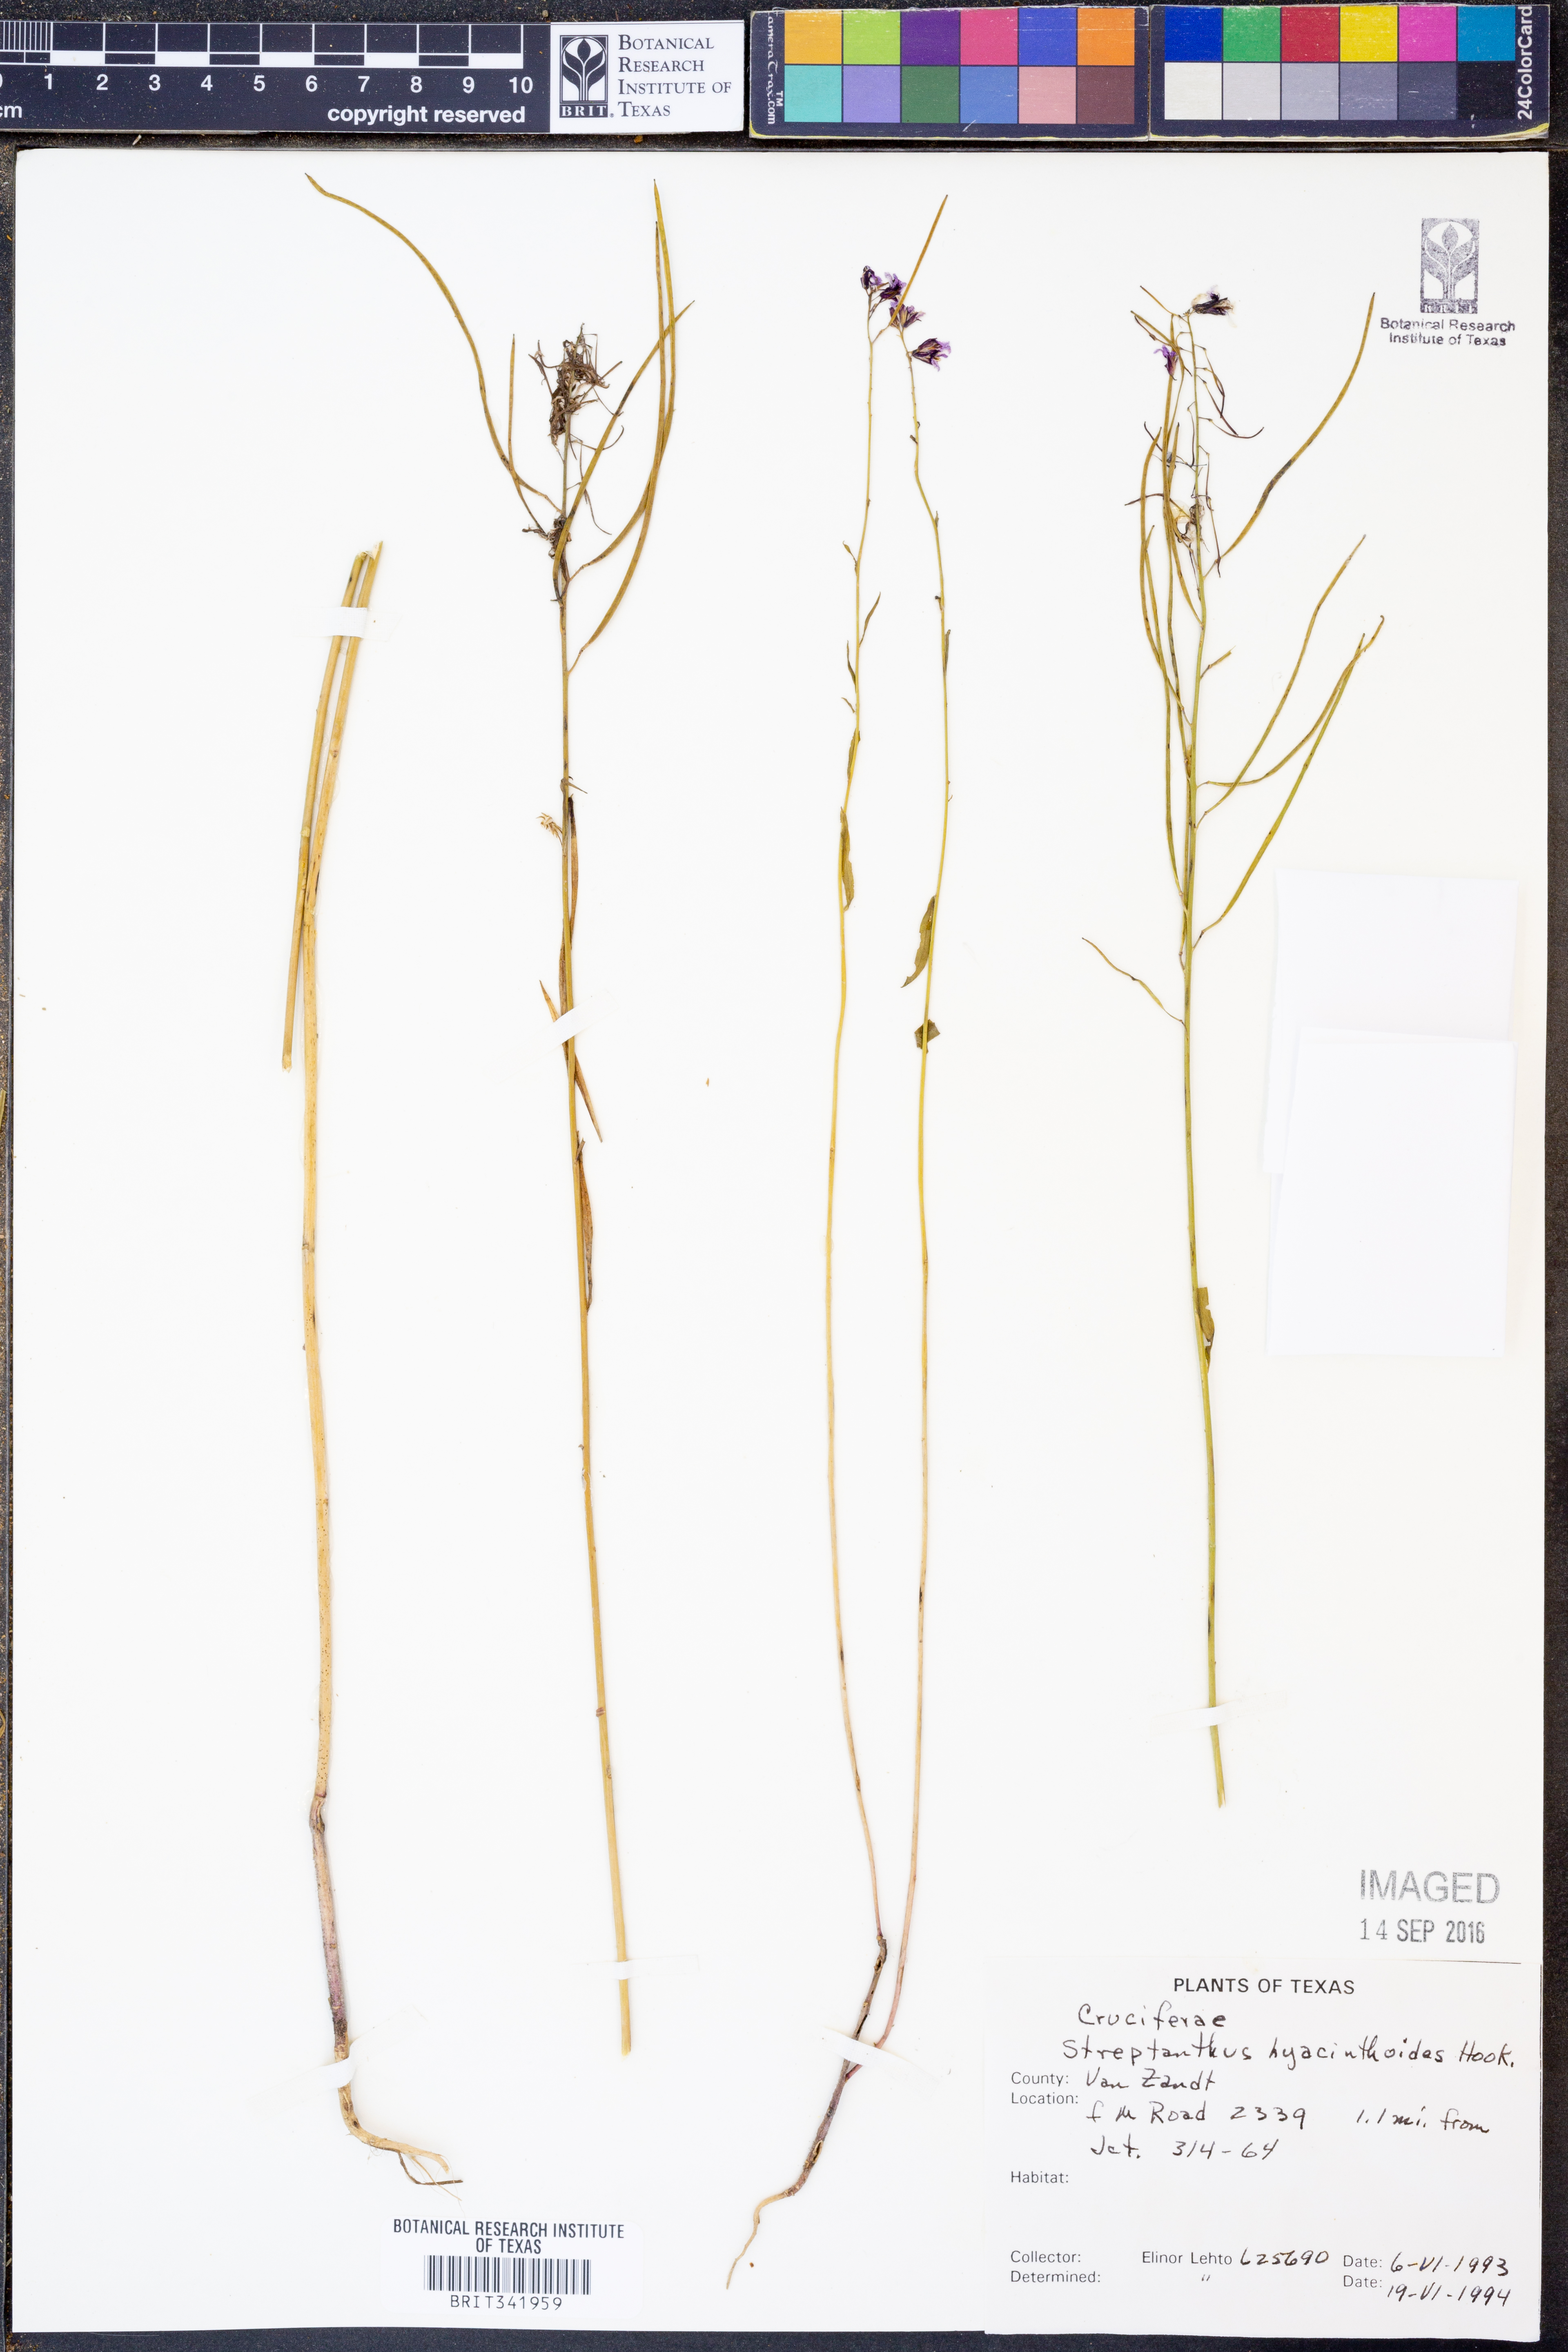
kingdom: Plantae
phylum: Tracheophyta
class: Magnoliopsida
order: Brassicales
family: Brassicaceae
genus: Streptanthus
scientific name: Streptanthus hyacinthoides
